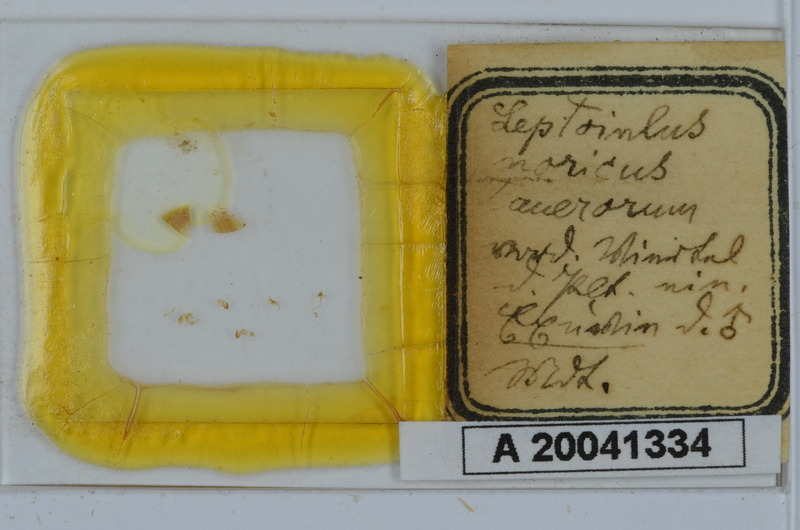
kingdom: Animalia
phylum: Arthropoda
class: Diplopoda
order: Julida
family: Julidae
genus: Leptoiulus
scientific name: Leptoiulus noricus
